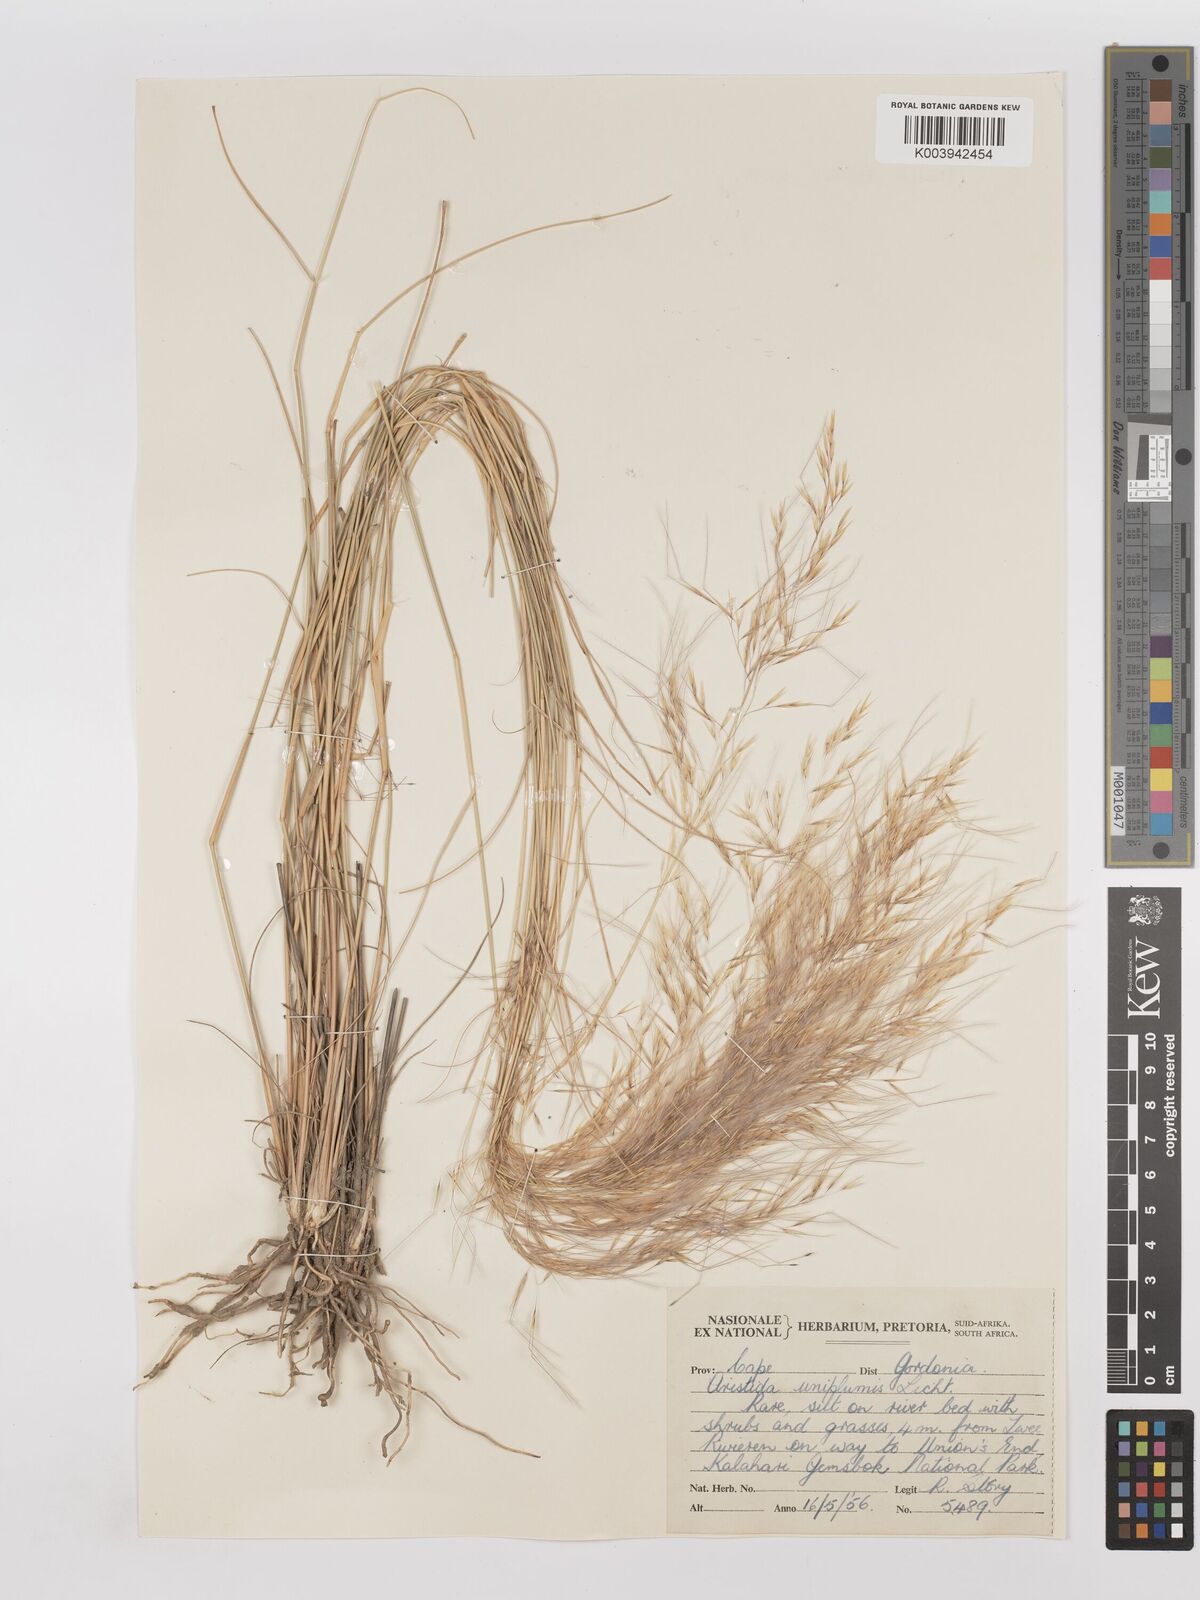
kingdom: Plantae
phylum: Tracheophyta
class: Liliopsida
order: Poales
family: Poaceae
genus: Stipagrostis
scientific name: Stipagrostis uniplumis
